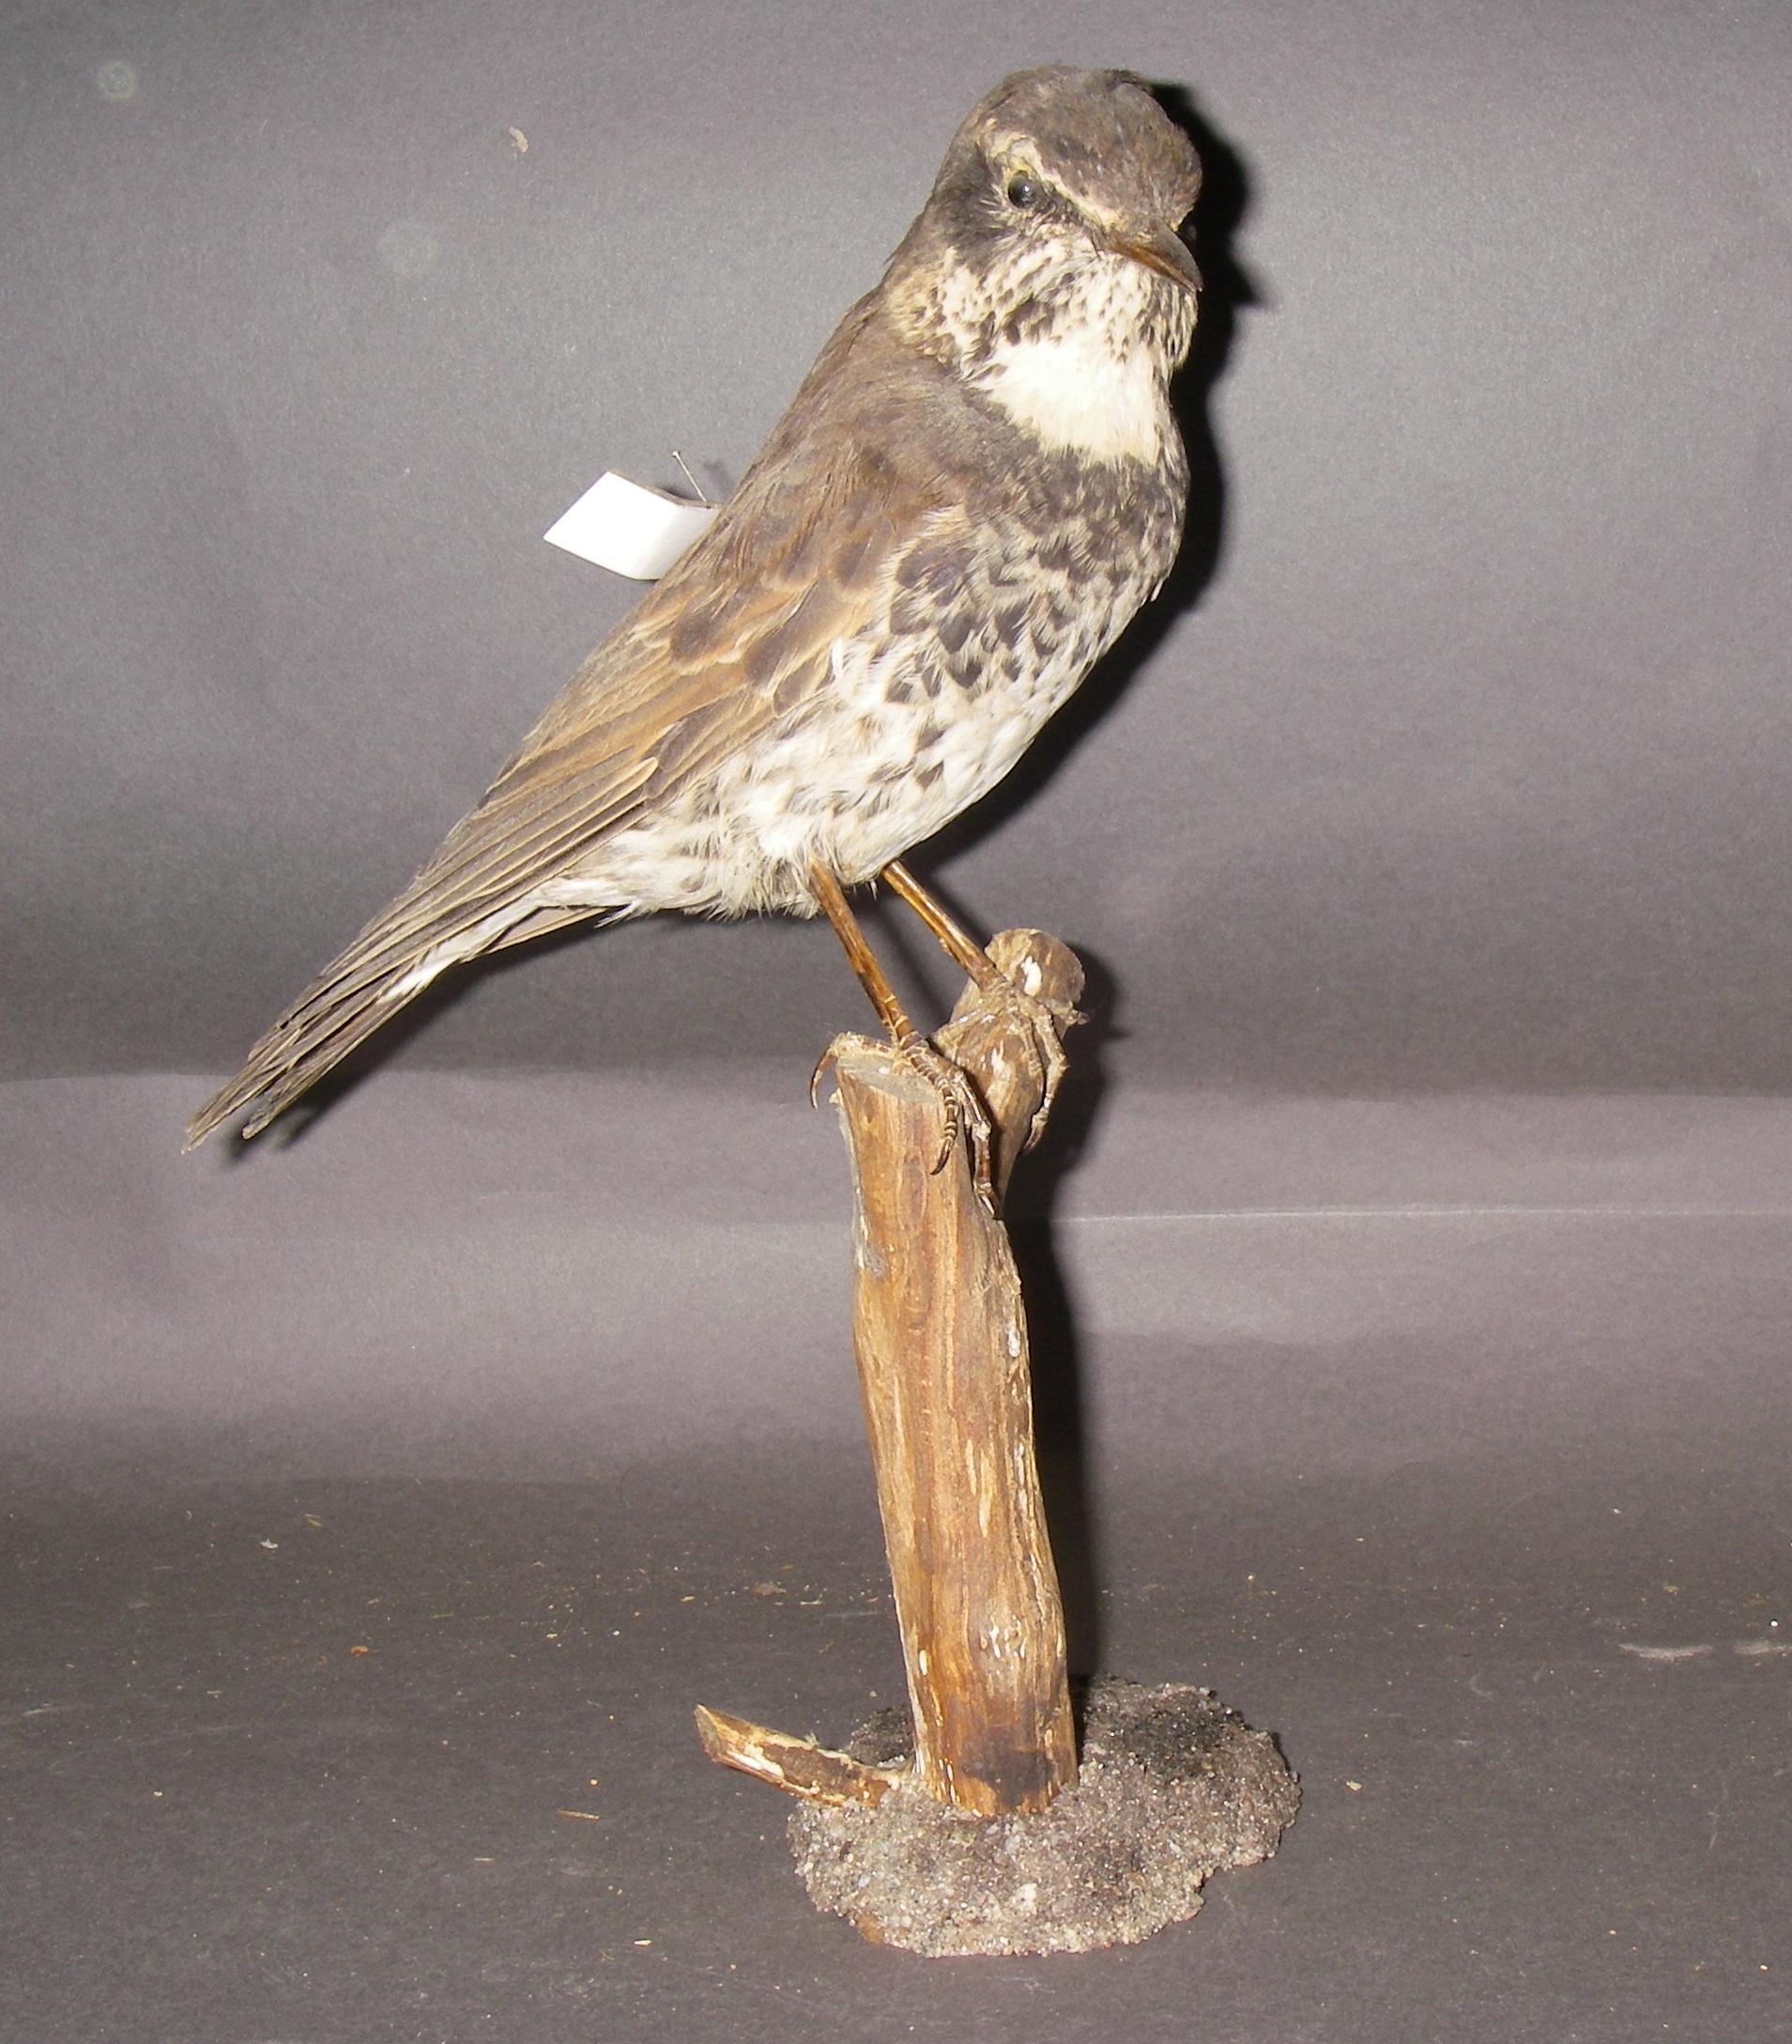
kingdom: Animalia
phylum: Chordata
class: Aves
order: Passeriformes
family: Turdidae
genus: Turdus
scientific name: Turdus naumanni
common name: Naumann's thrush
